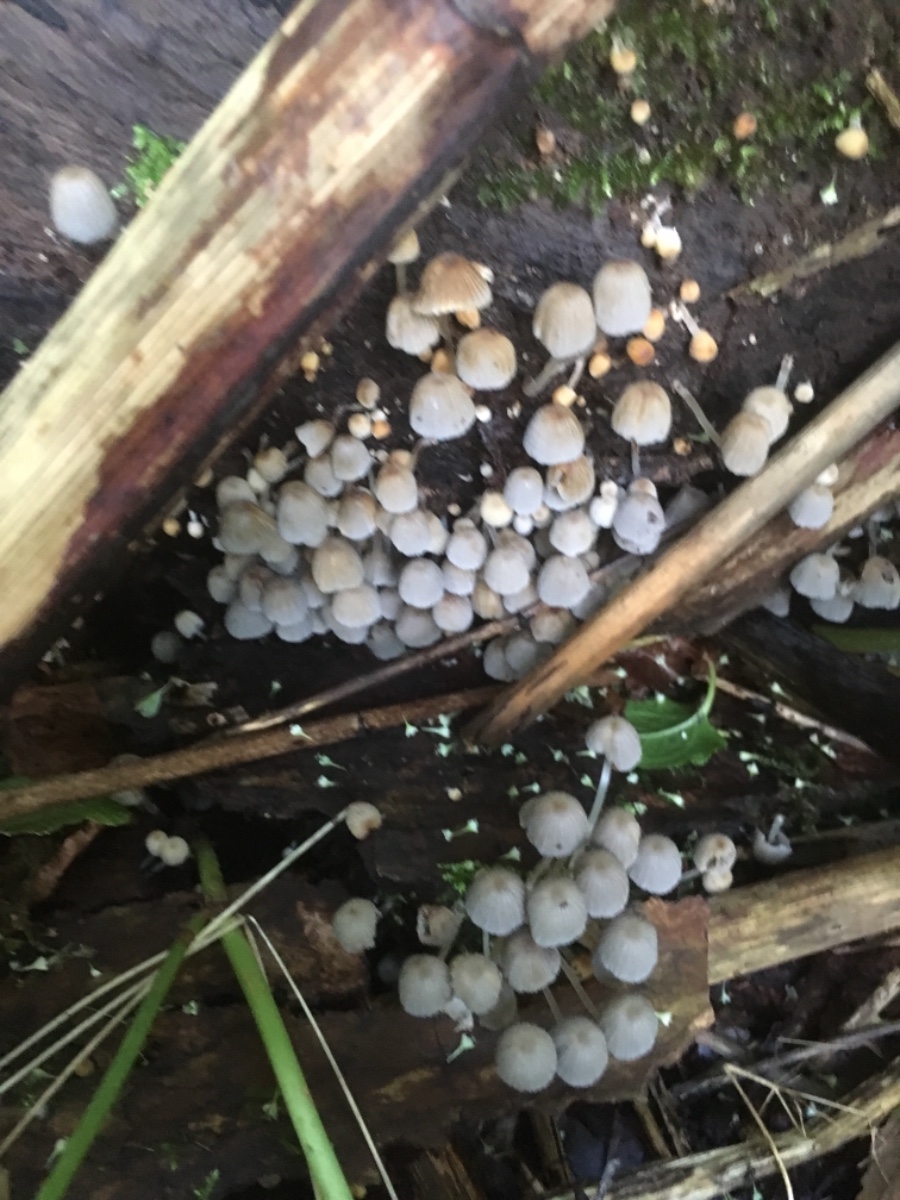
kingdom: Fungi
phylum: Basidiomycota
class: Agaricomycetes
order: Agaricales
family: Psathyrellaceae
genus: Coprinellus
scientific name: Coprinellus disseminatus
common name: bredsået blækhat
